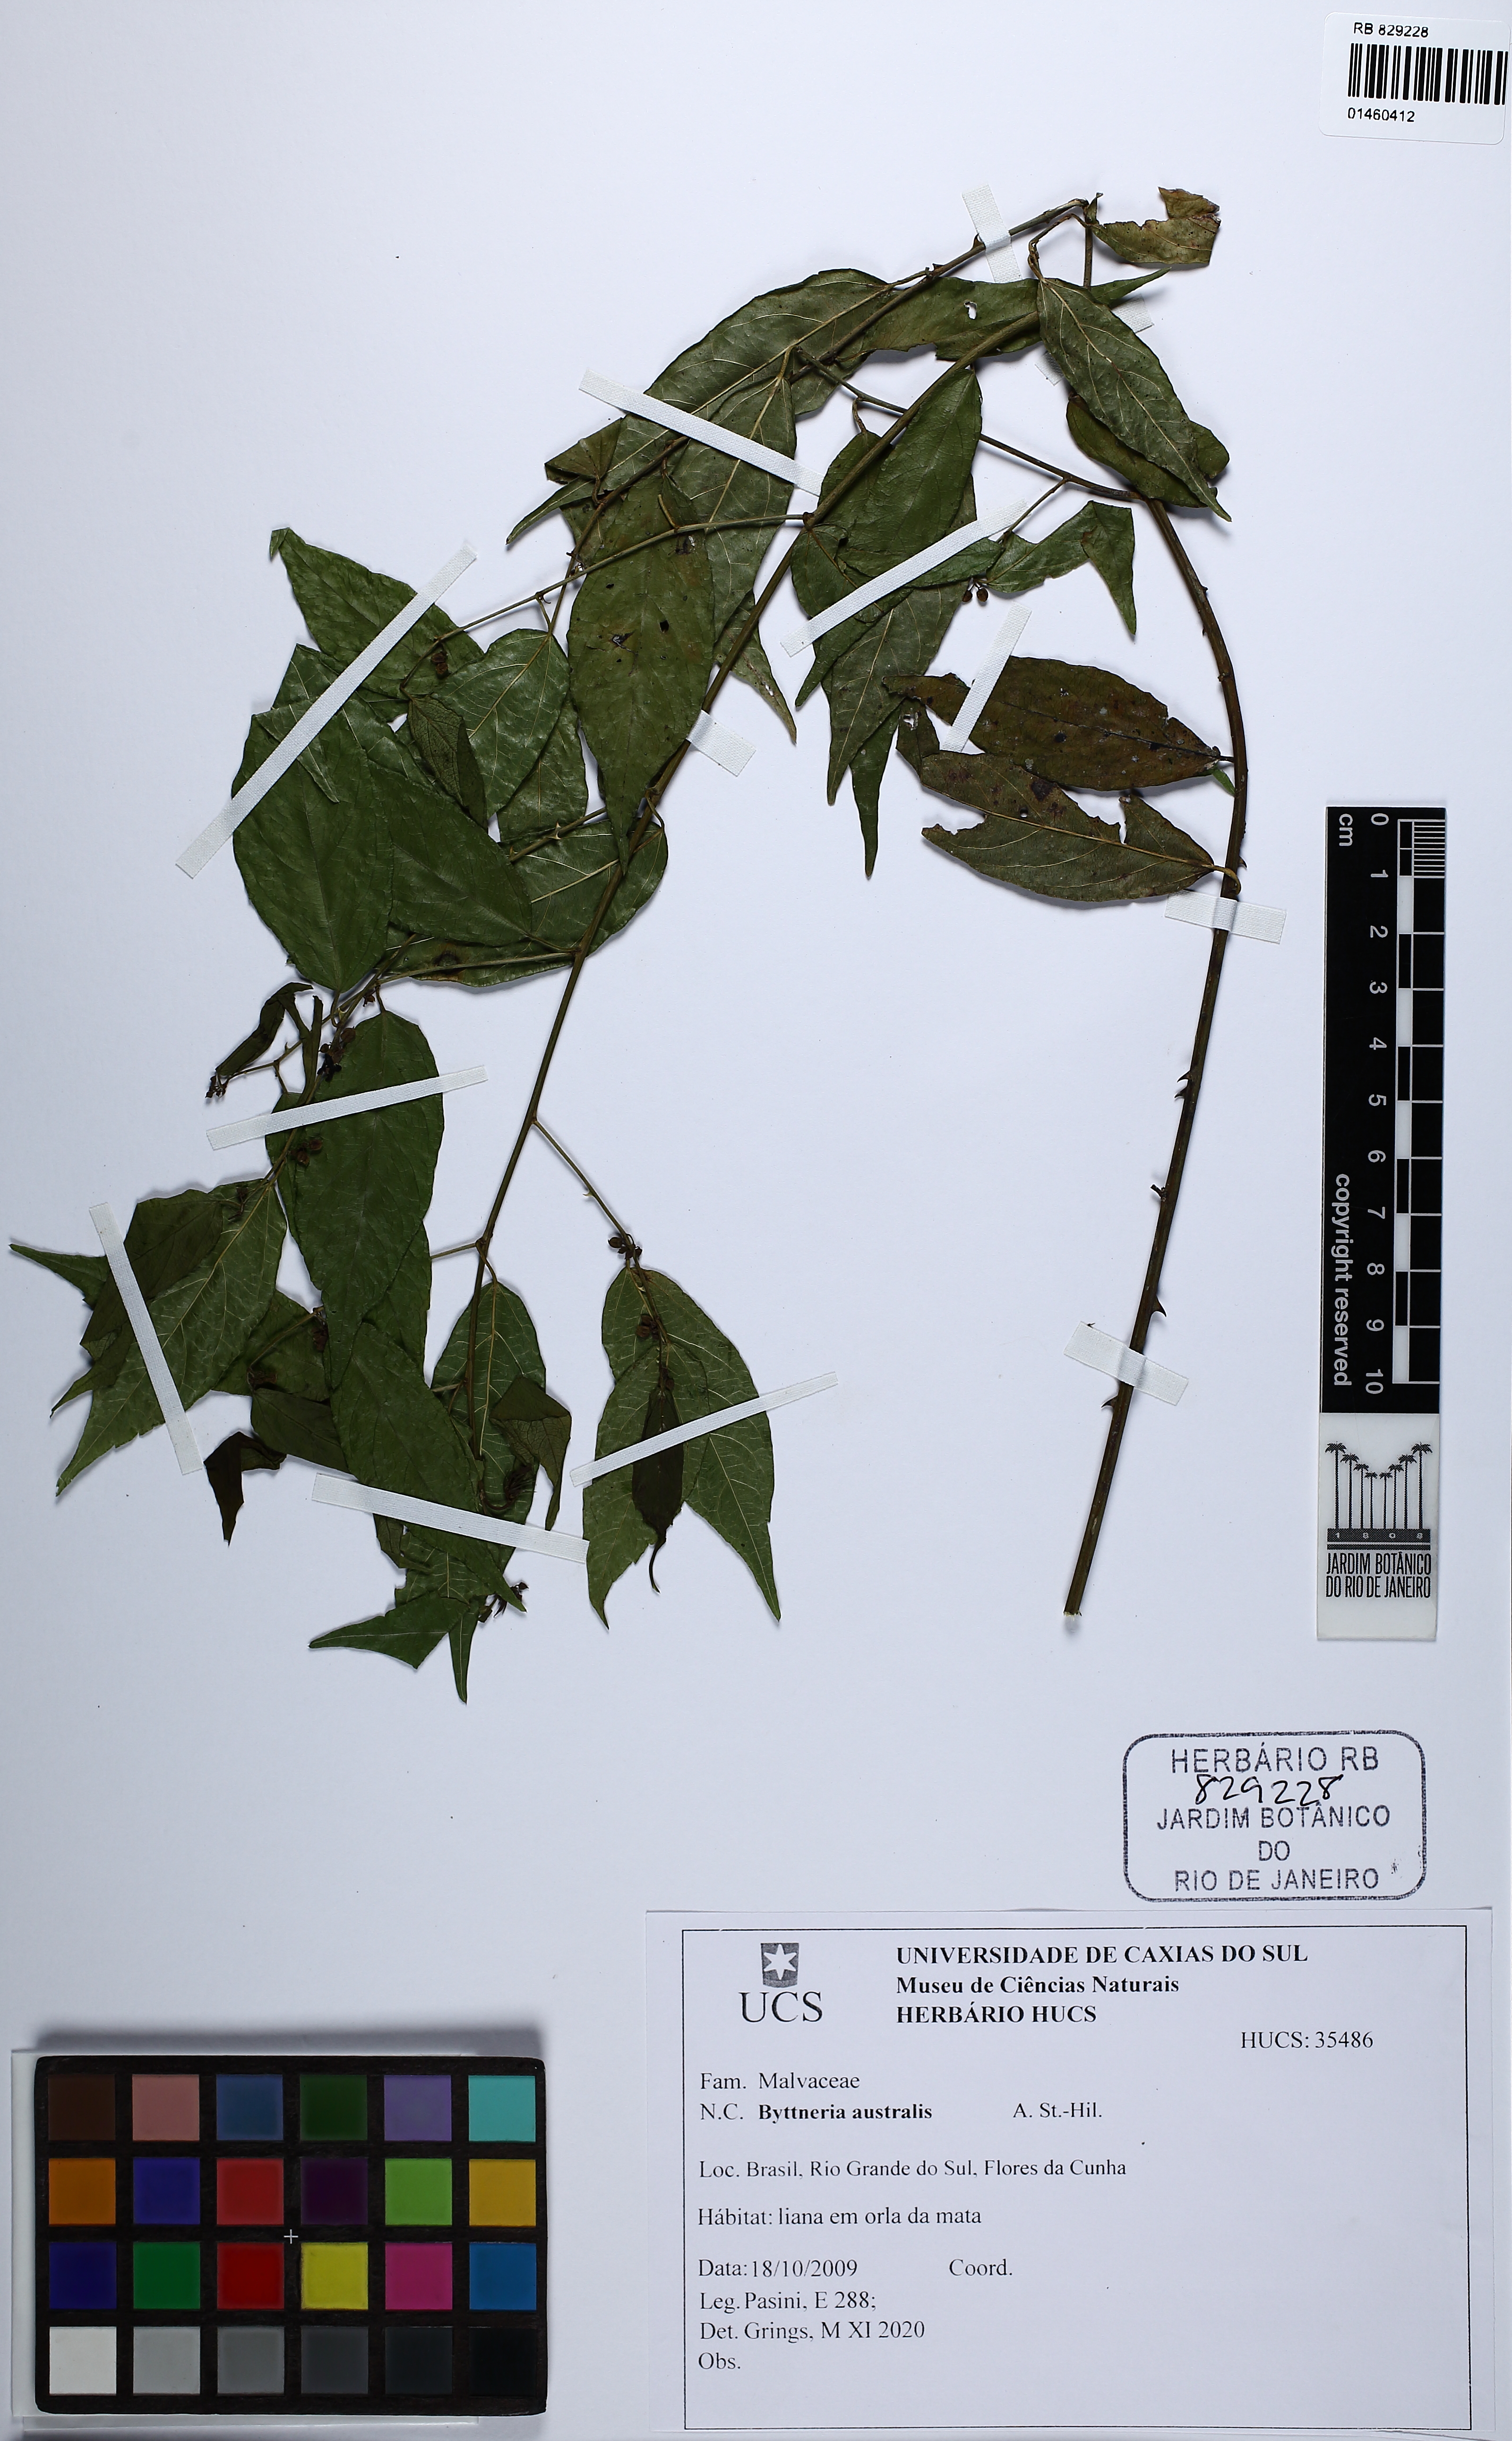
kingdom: Plantae
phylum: Tracheophyta
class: Magnoliopsida
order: Malvales
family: Malvaceae
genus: Byttneria
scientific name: Byttneria australis
